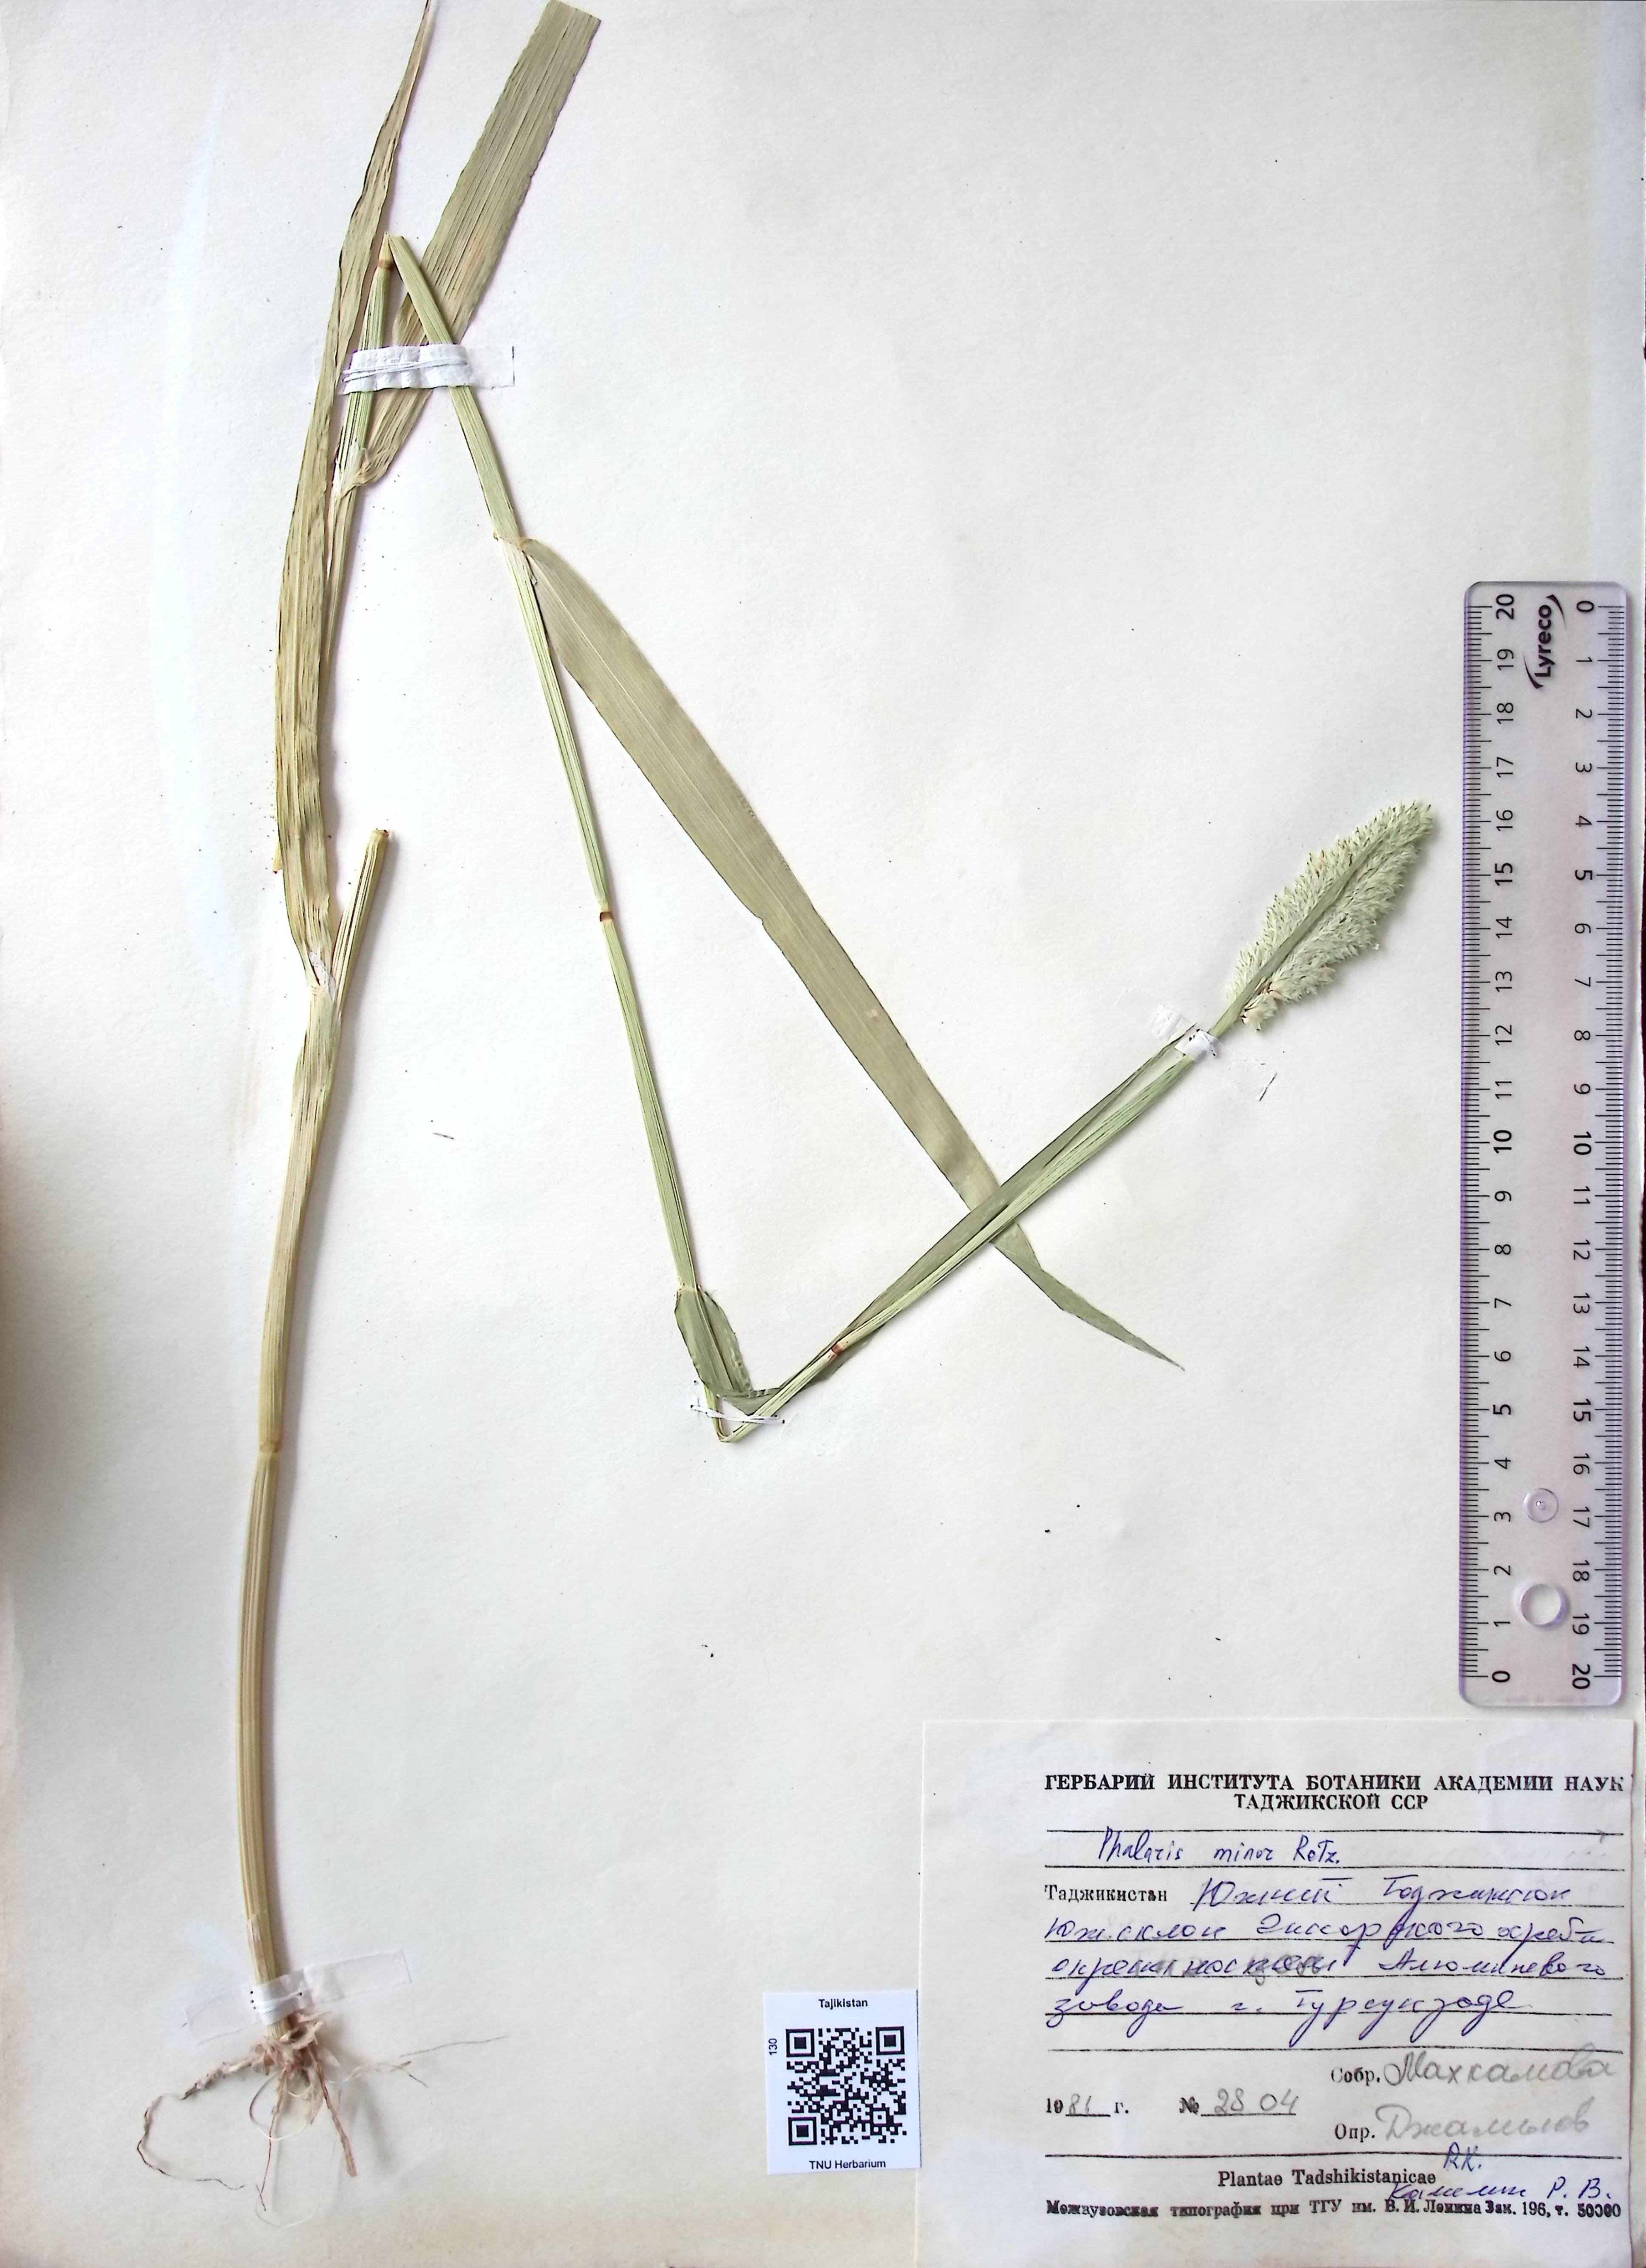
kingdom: Plantae
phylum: Tracheophyta
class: Liliopsida
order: Poales
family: Poaceae
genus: Phalaris
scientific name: Phalaris minor
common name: Littleseed canarygrass
